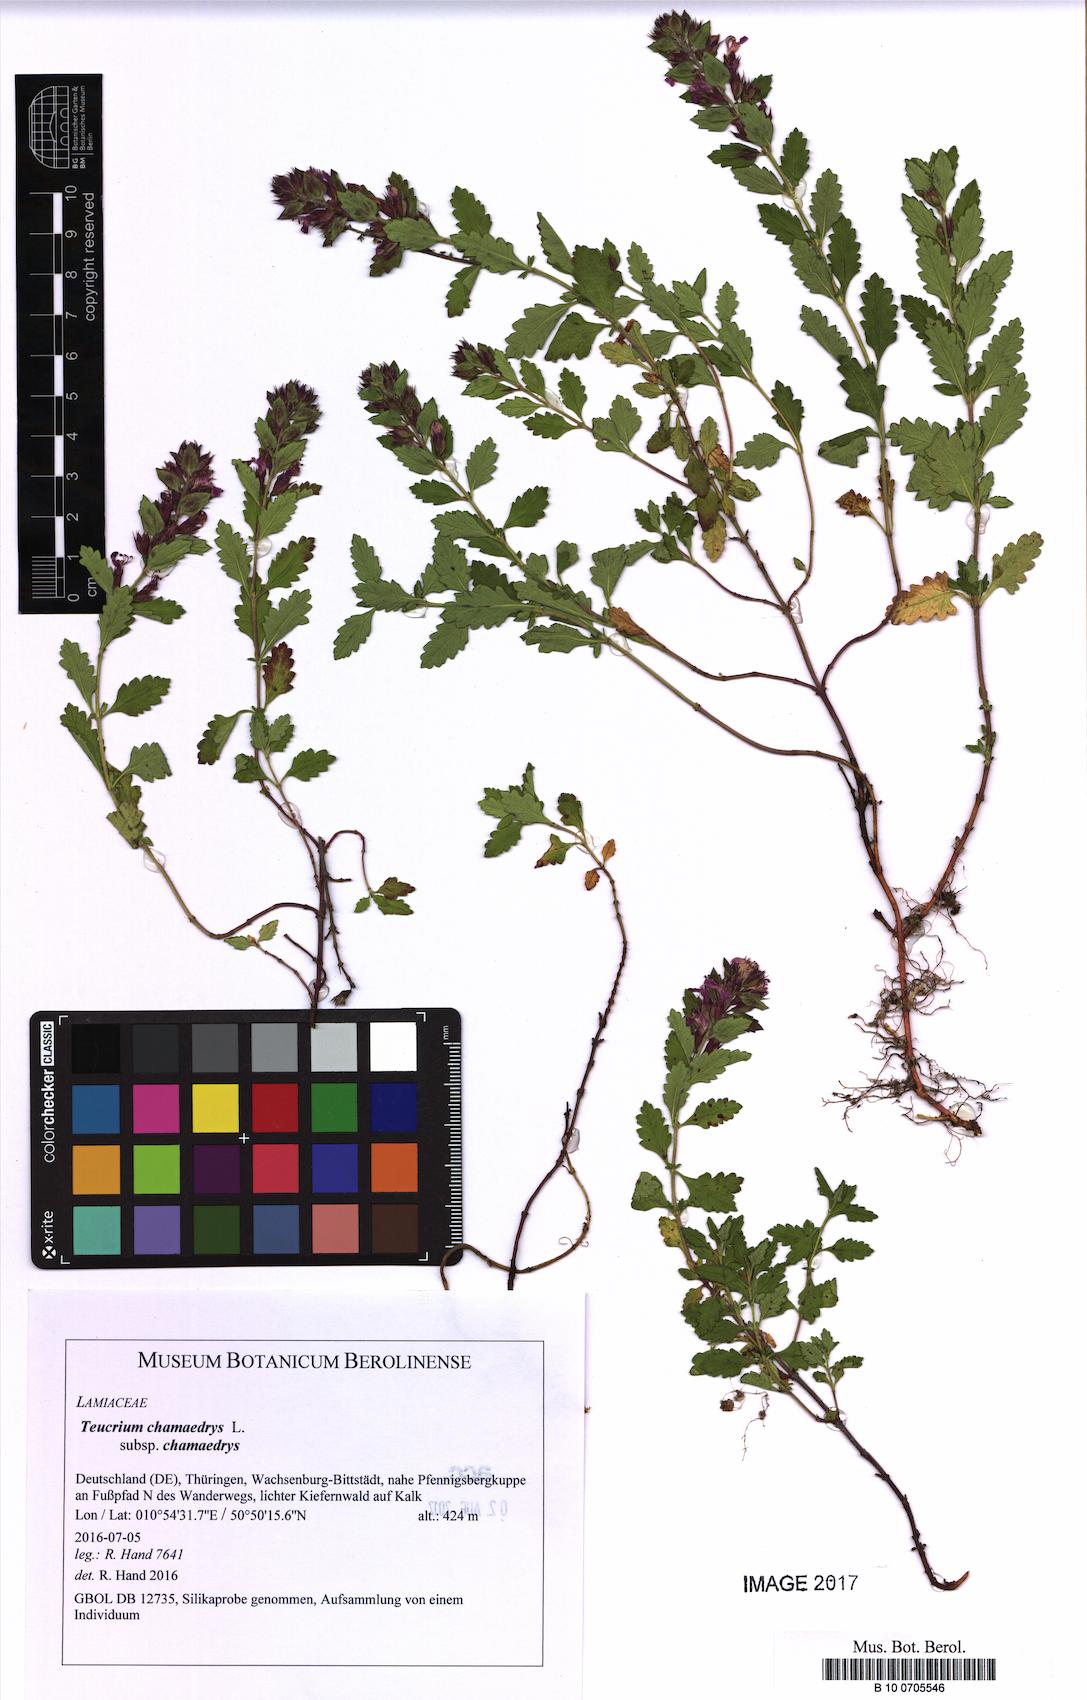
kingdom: Plantae
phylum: Tracheophyta
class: Magnoliopsida
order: Lamiales
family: Lamiaceae
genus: Teucrium
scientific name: Teucrium chamaedrys
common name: Wall germander
